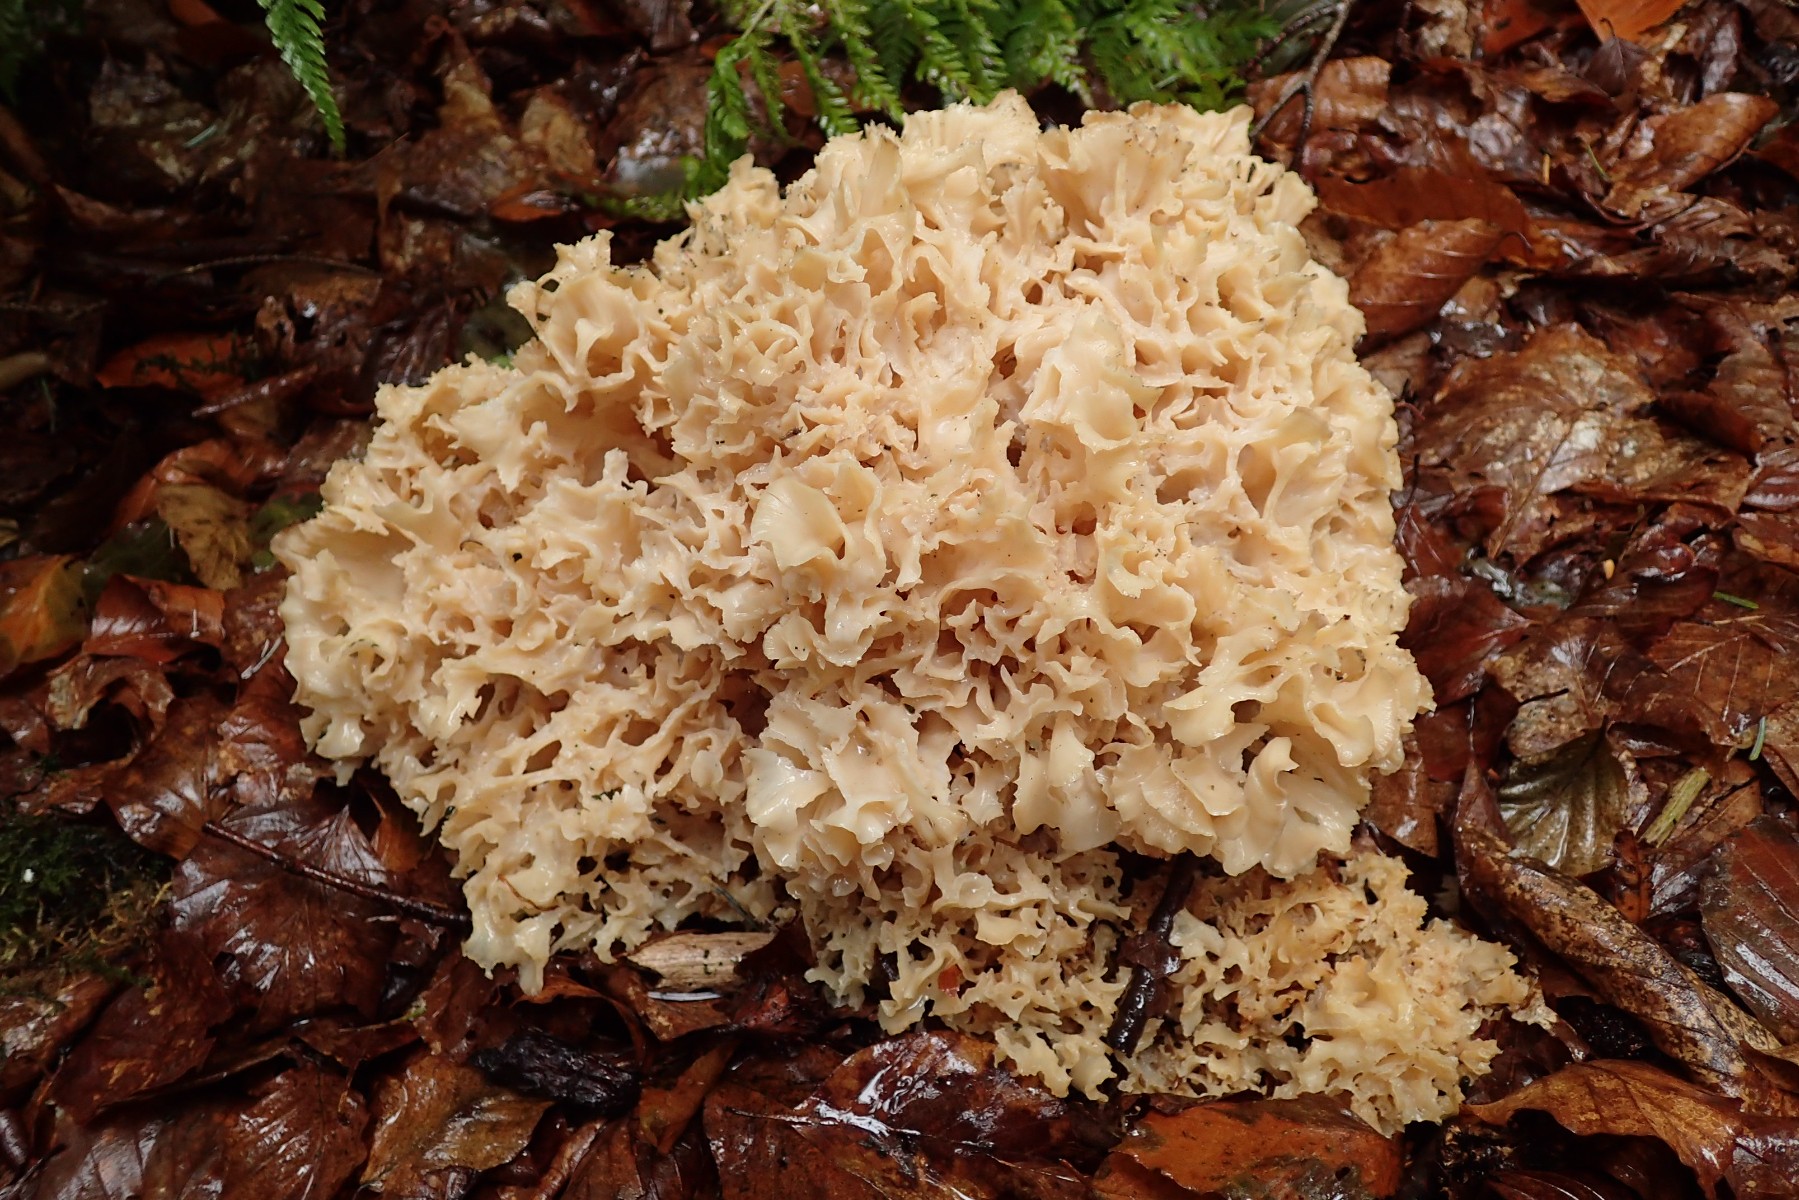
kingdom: Fungi
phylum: Basidiomycota
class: Agaricomycetes
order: Polyporales
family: Sparassidaceae
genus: Sparassis
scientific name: Sparassis crispa
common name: kruset blomkålssvamp
